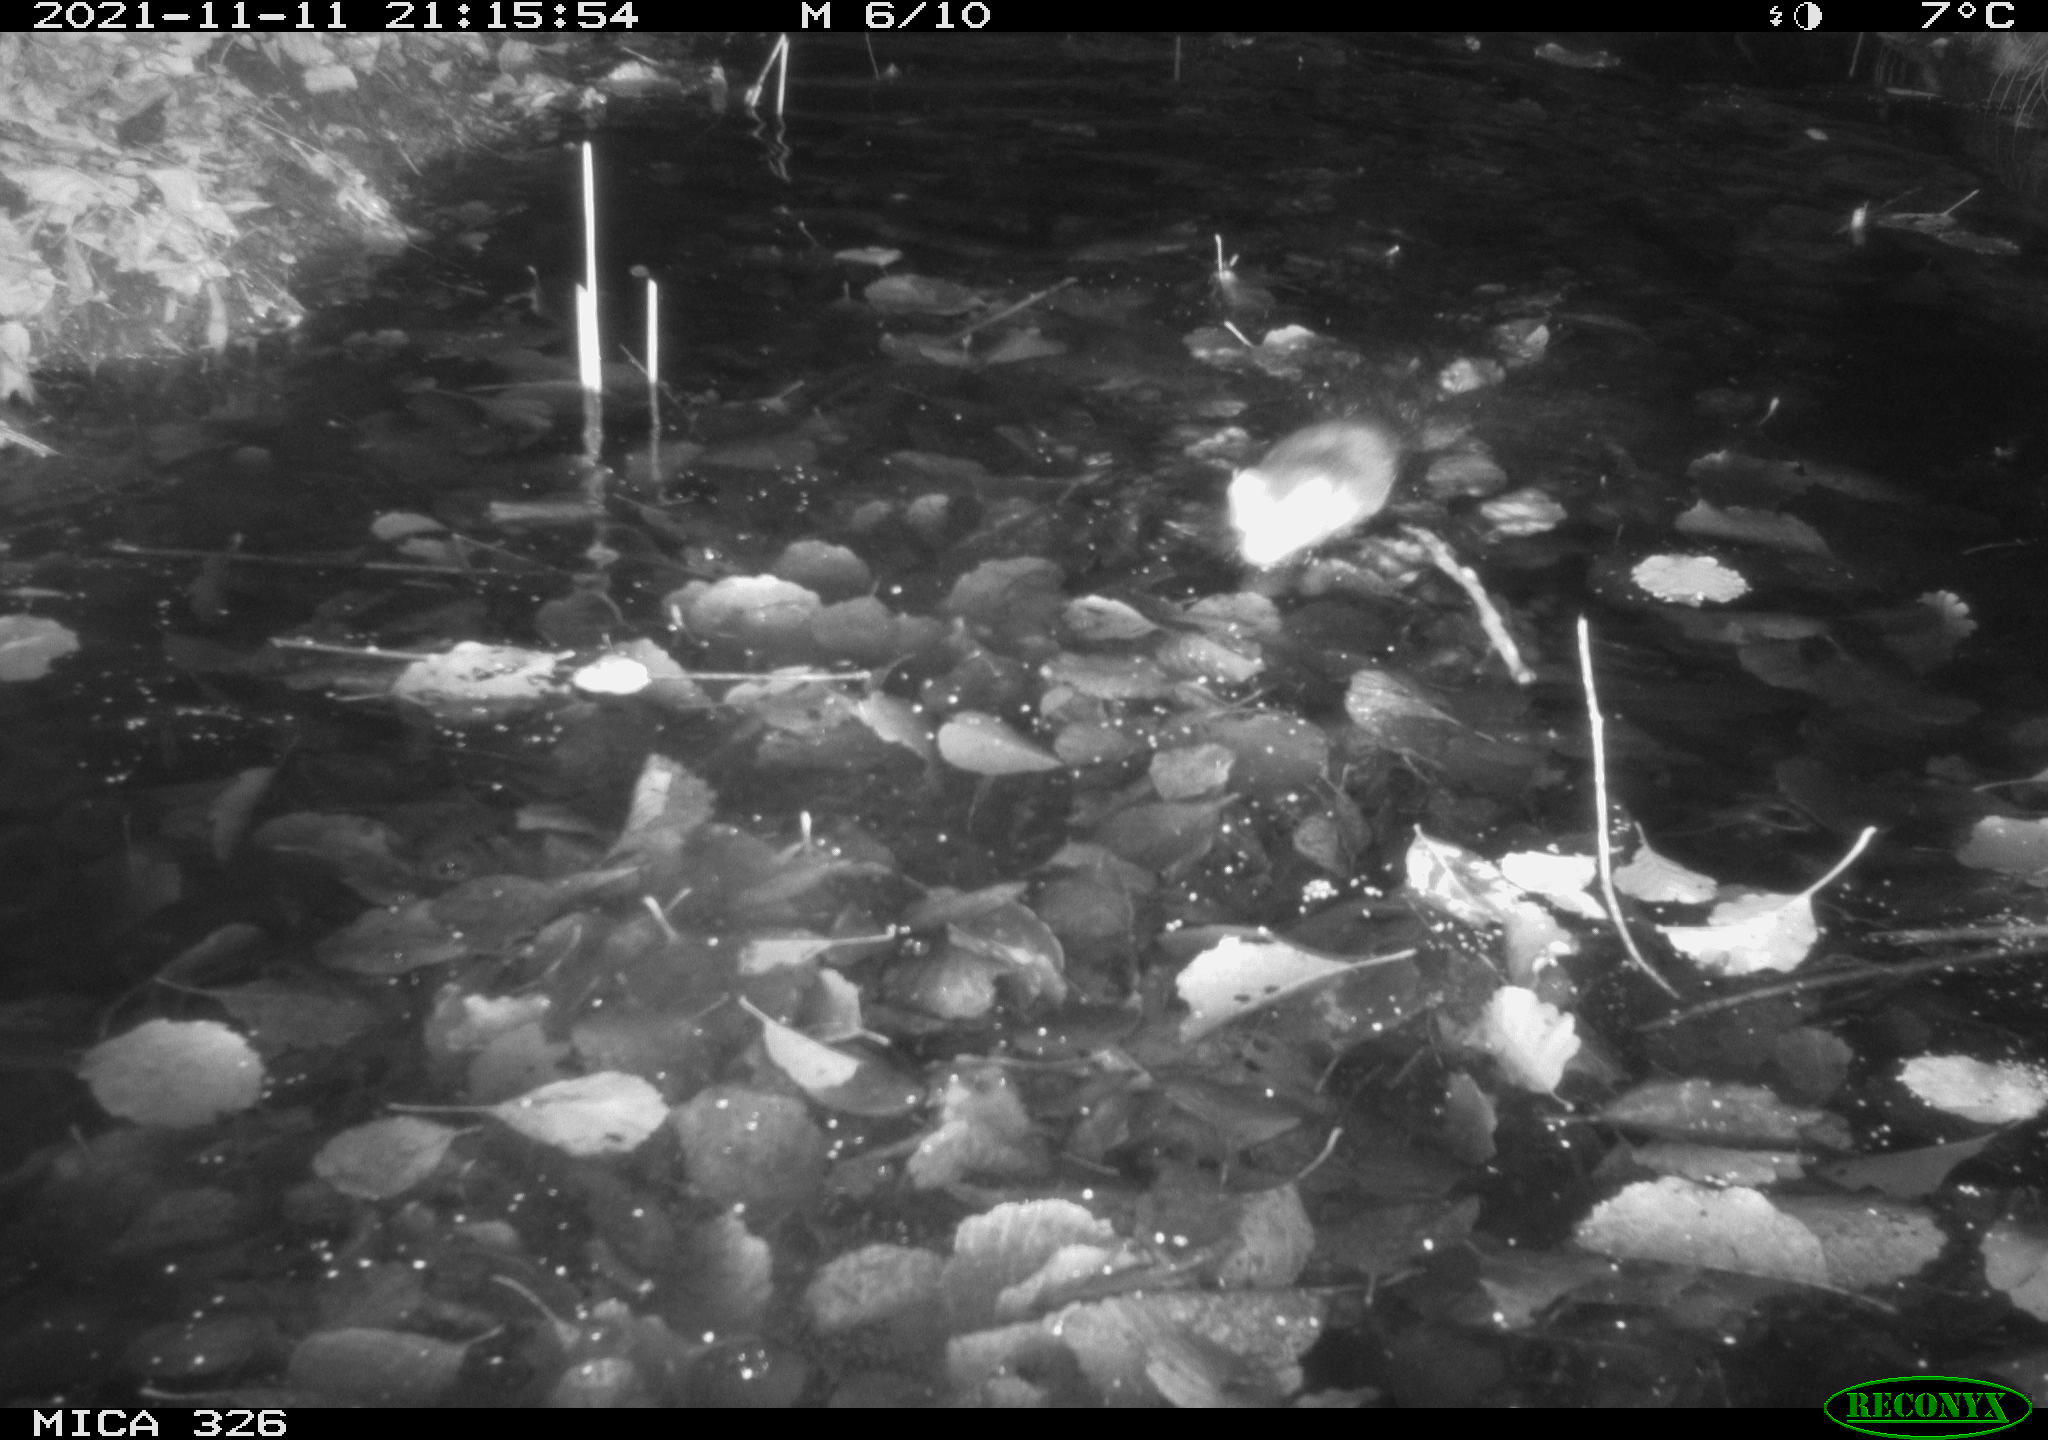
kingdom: Animalia
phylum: Chordata
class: Mammalia
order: Rodentia
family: Cricetidae
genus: Ondatra
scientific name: Ondatra zibethicus
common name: Muskrat
